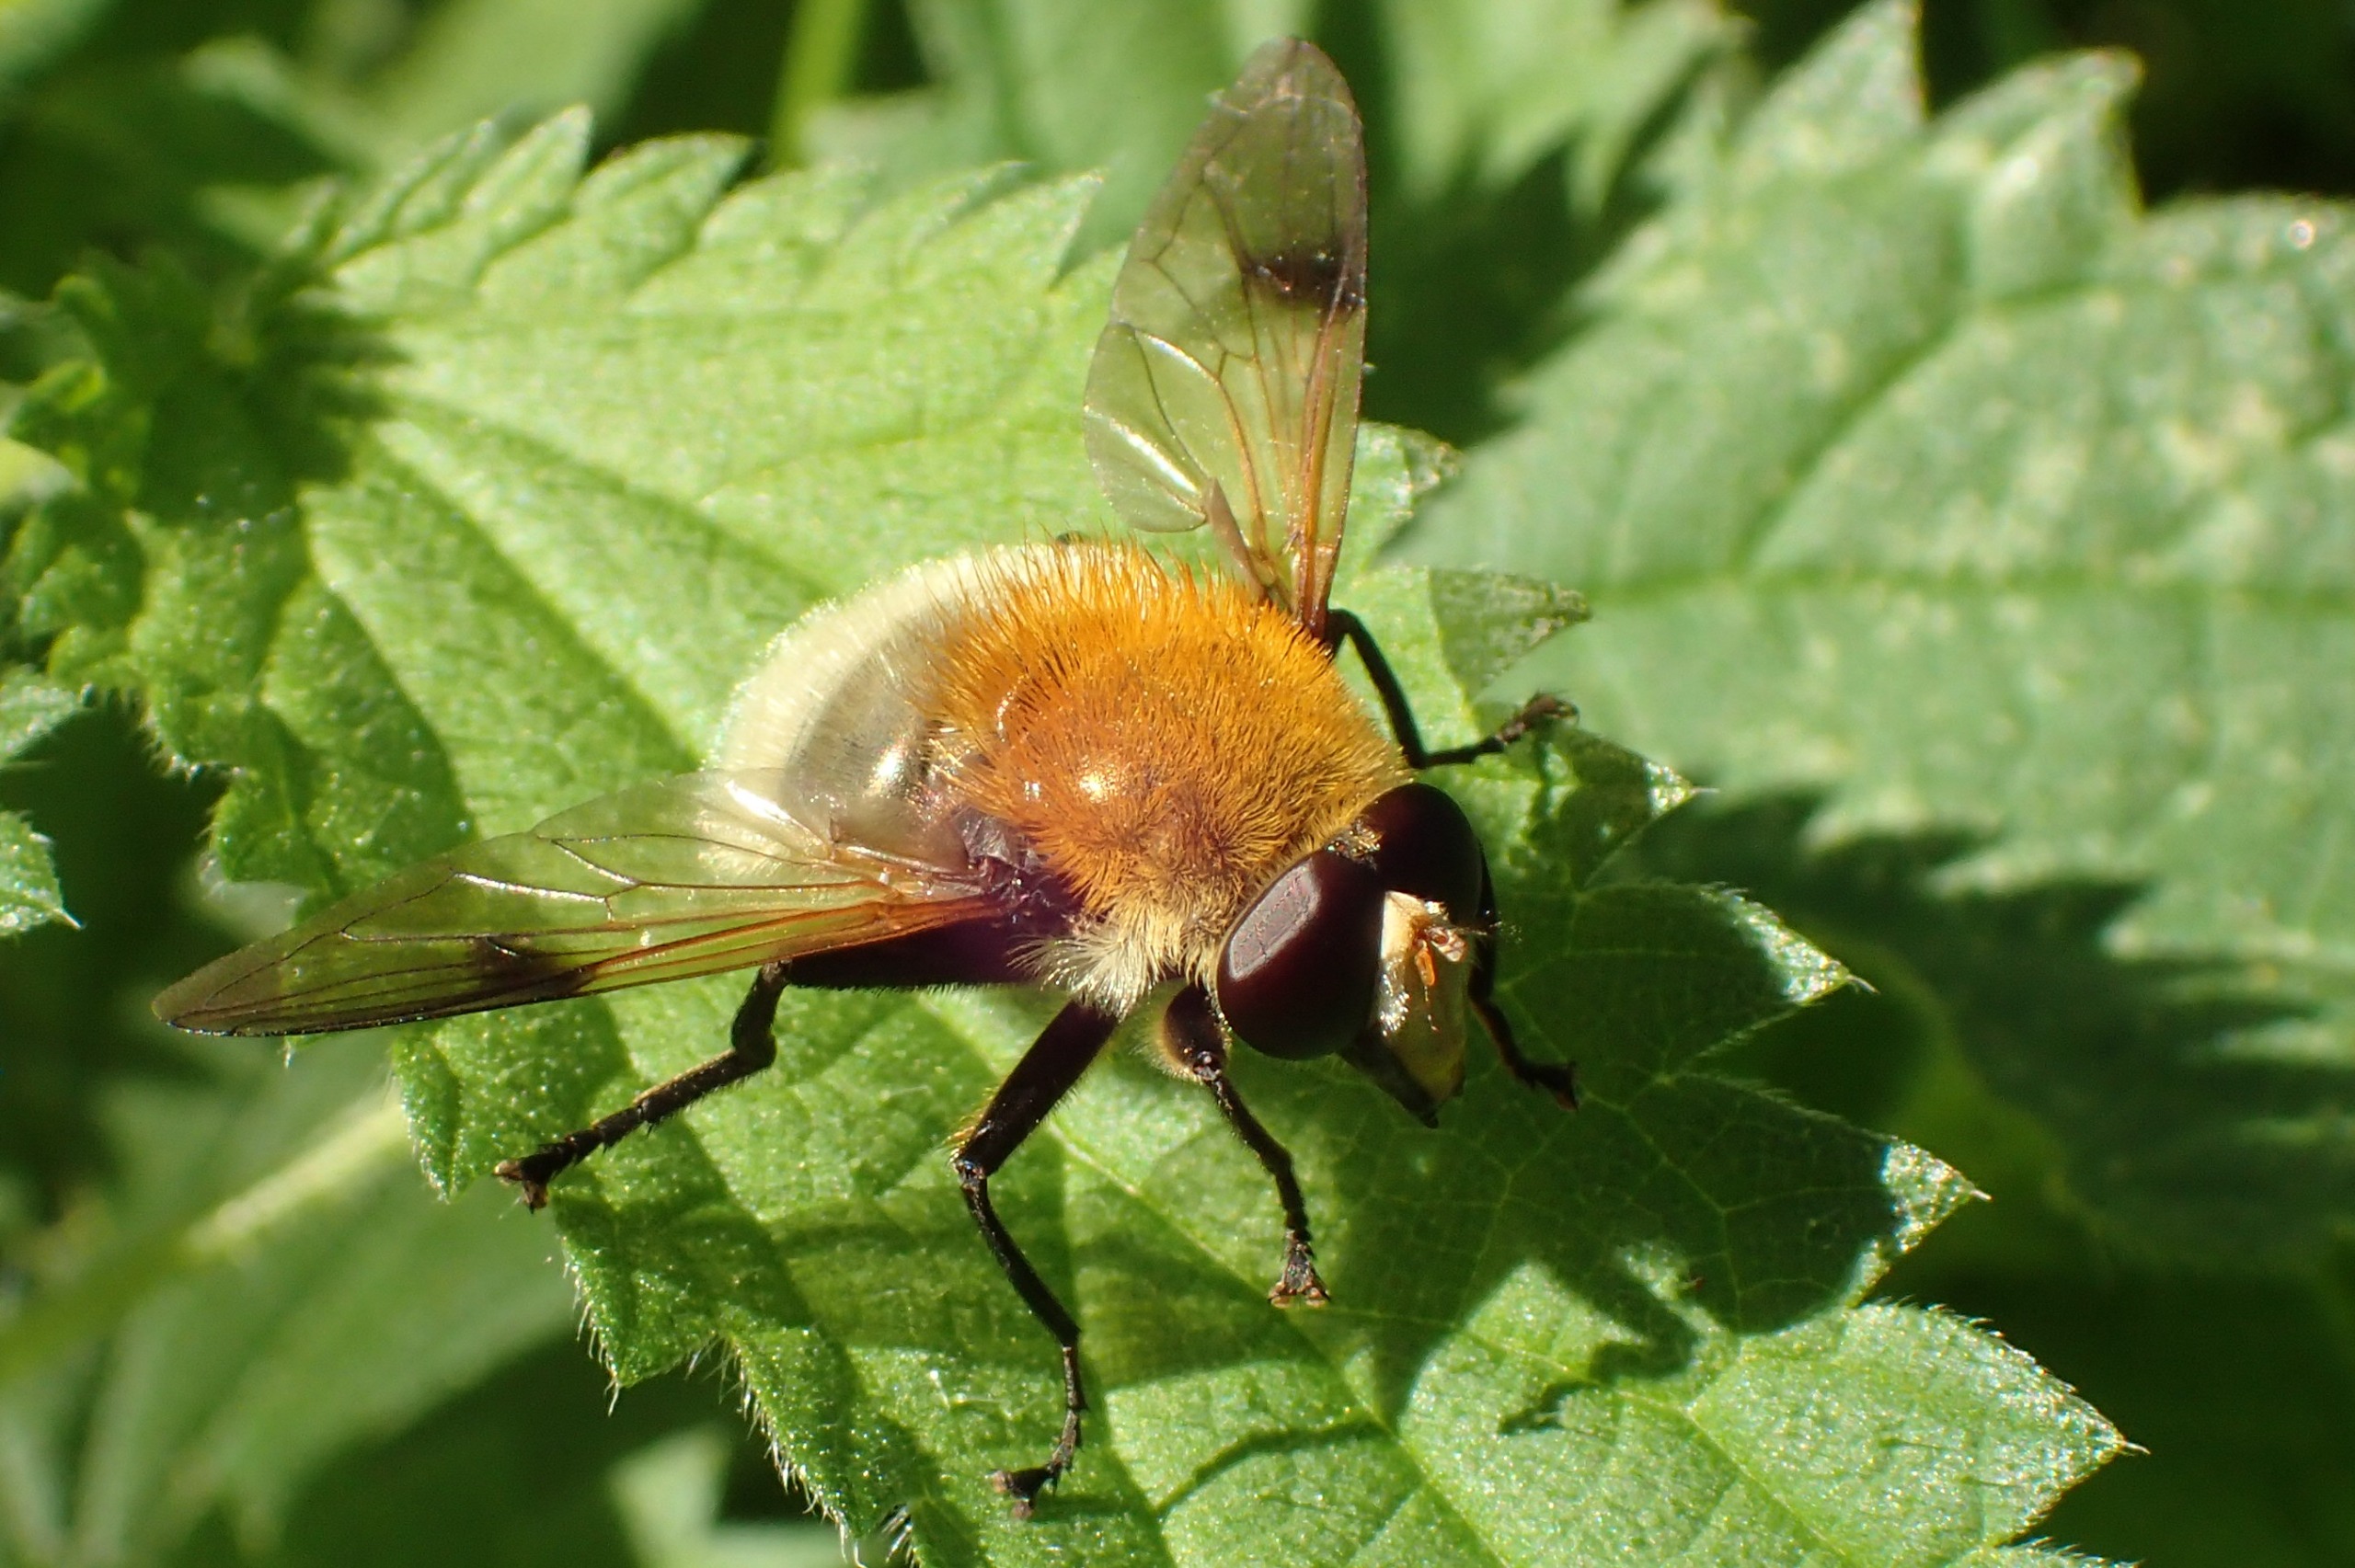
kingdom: Animalia
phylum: Arthropoda
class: Insecta
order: Diptera
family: Syrphidae
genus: Sericomyia
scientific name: Sericomyia superbiens
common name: Brun bjørnesvirreflue
